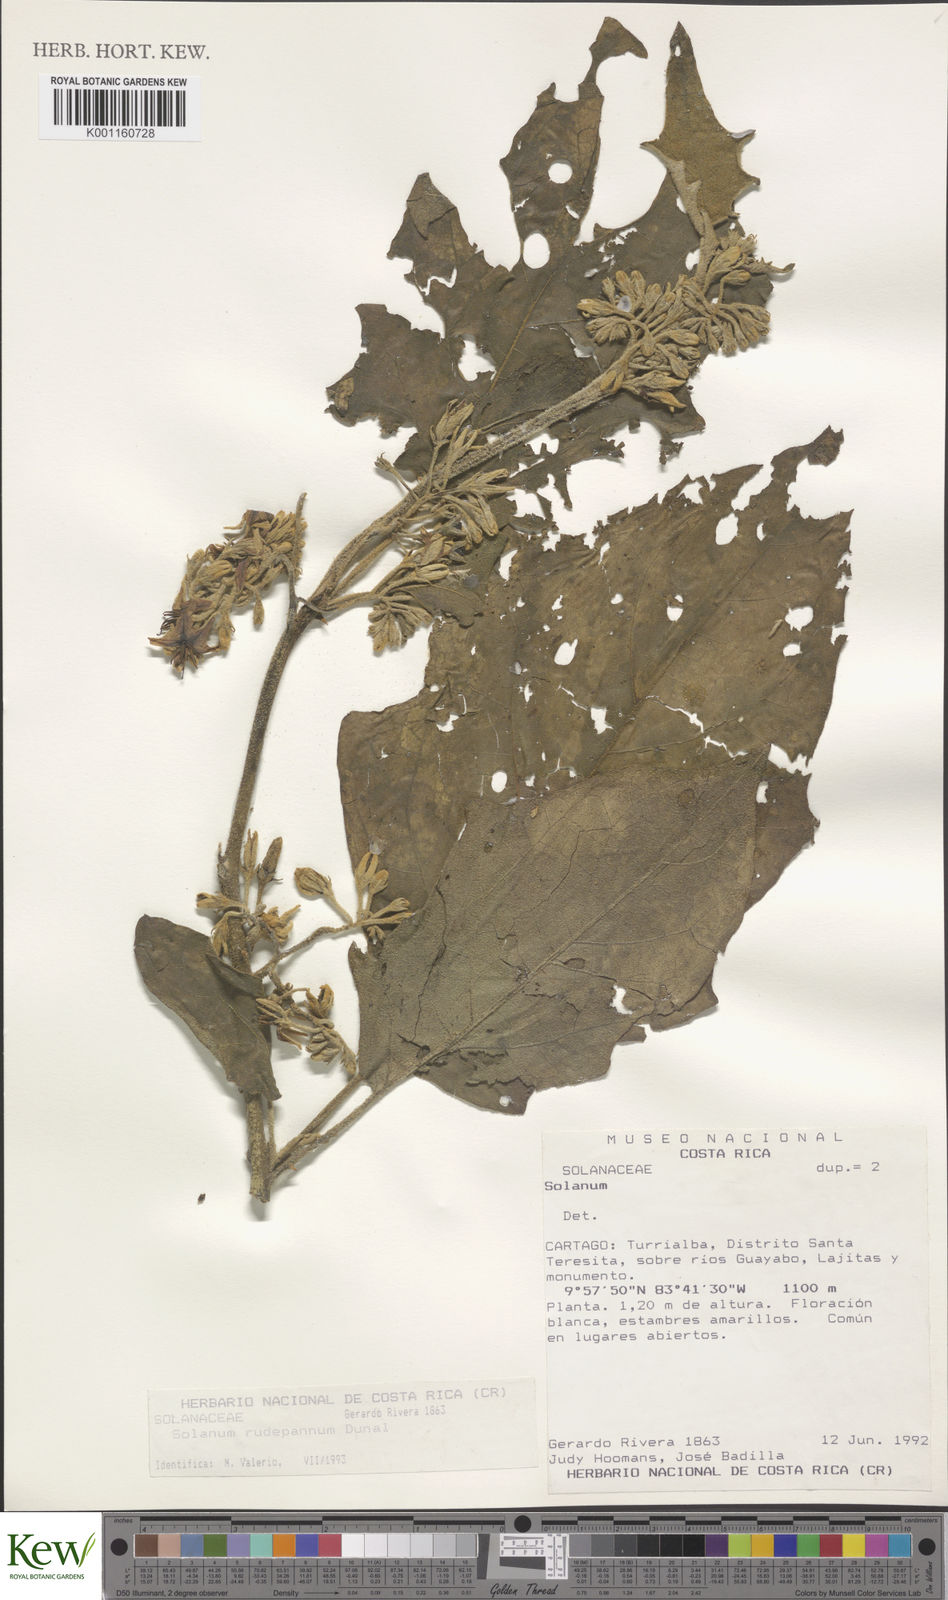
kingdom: Plantae
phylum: Tracheophyta
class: Magnoliopsida
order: Solanales
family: Solanaceae
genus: Solanum
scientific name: Solanum rude-pannum
